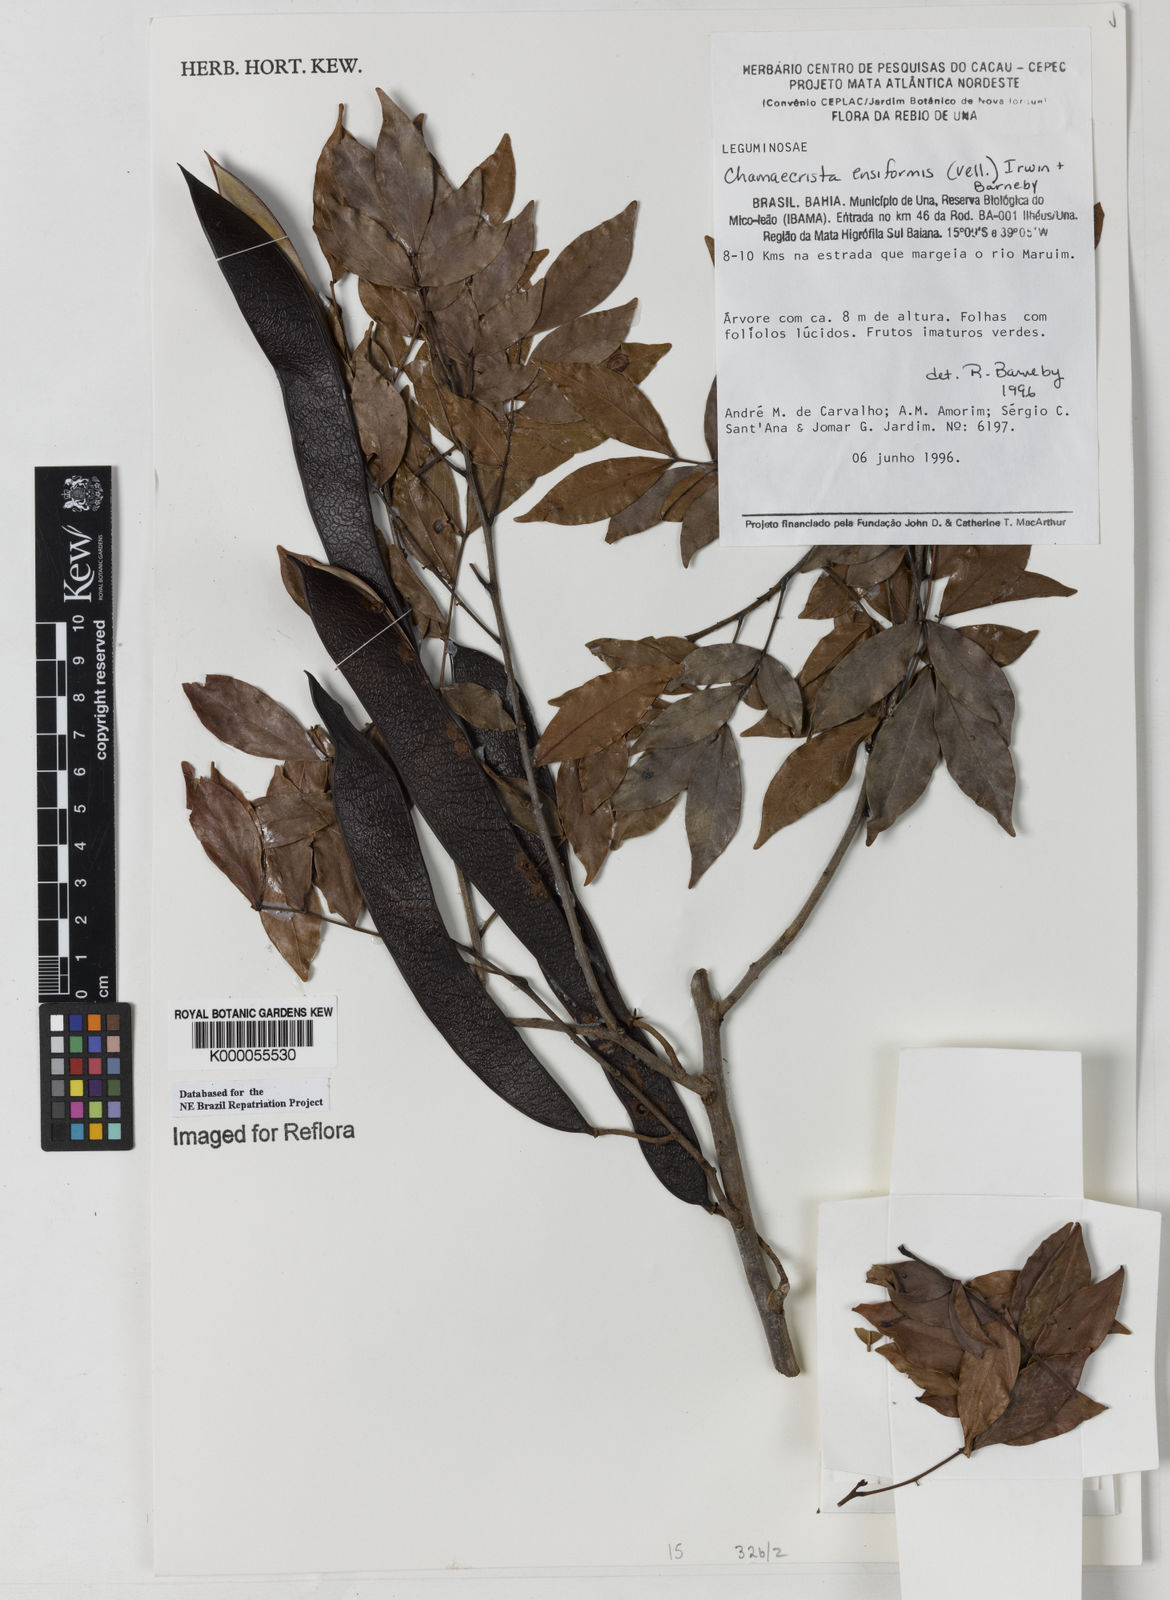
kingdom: Plantae
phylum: Tracheophyta
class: Magnoliopsida
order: Fabales
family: Fabaceae
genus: Chamaecrista
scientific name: Chamaecrista ensiformis
